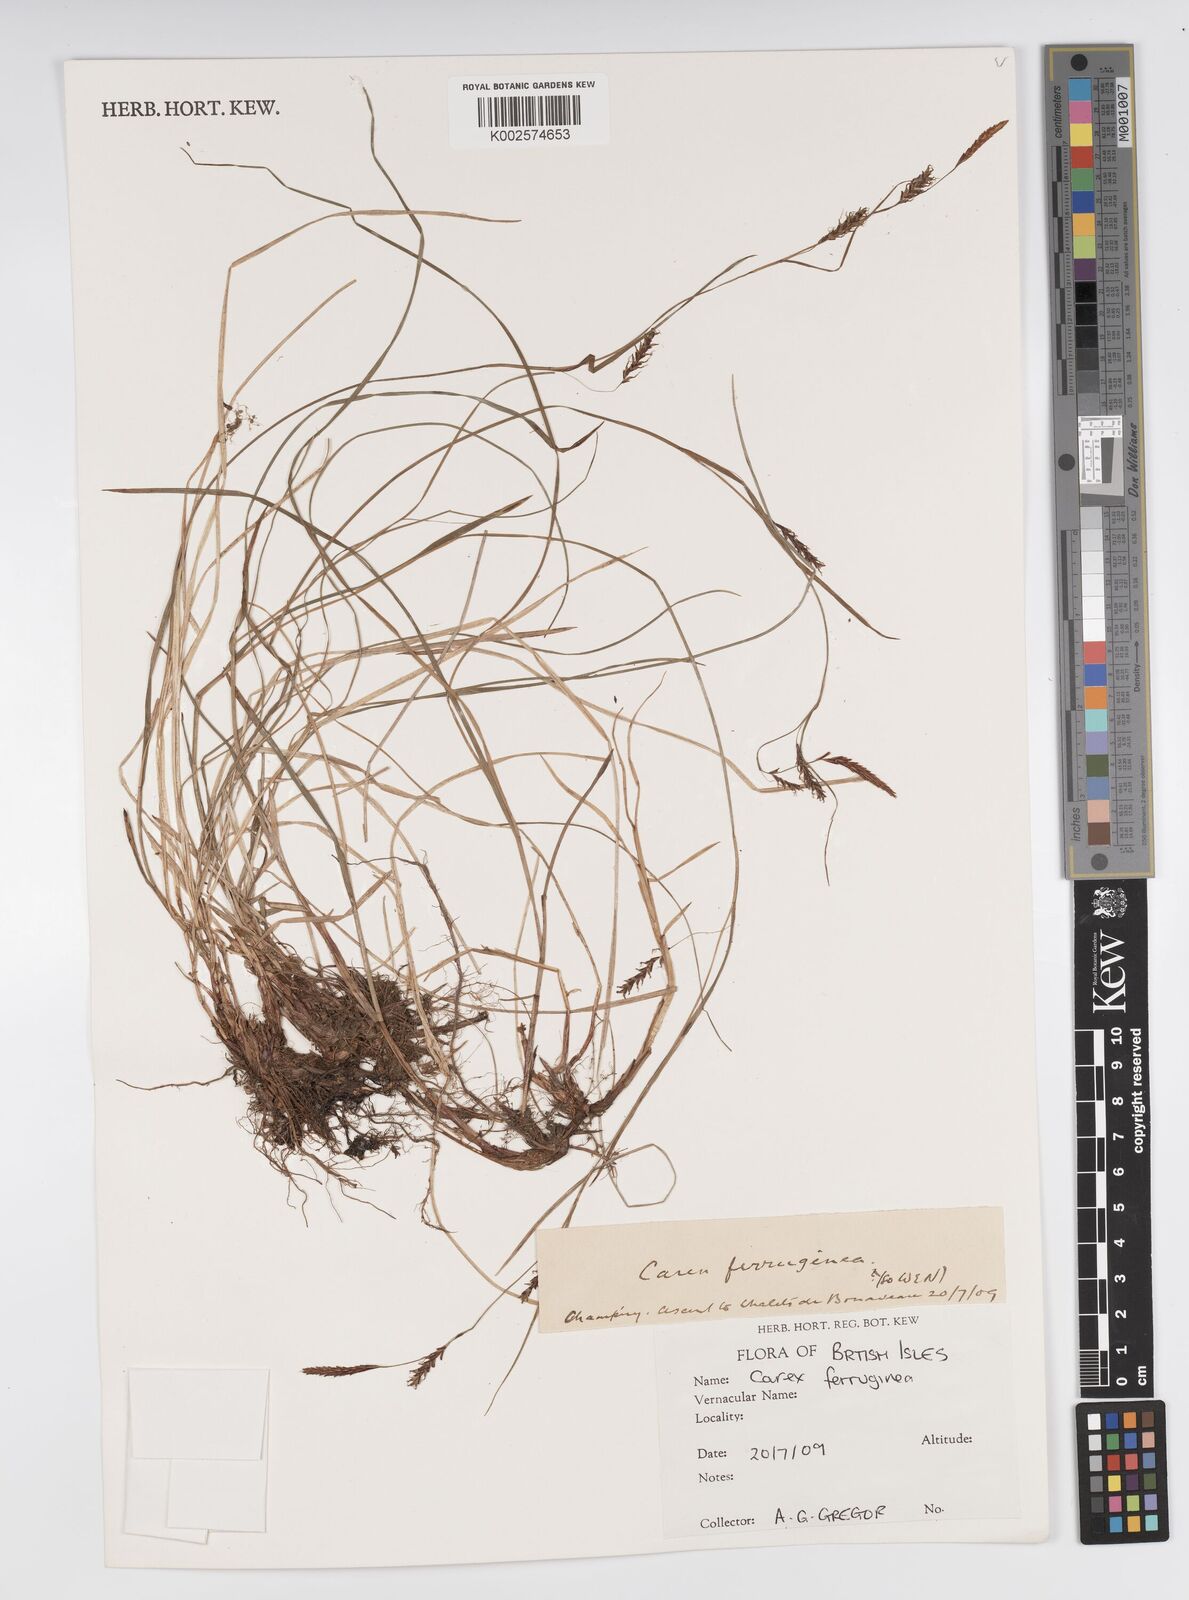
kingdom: Plantae
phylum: Tracheophyta
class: Liliopsida
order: Poales
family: Cyperaceae
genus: Carex
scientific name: Carex ferruginea
